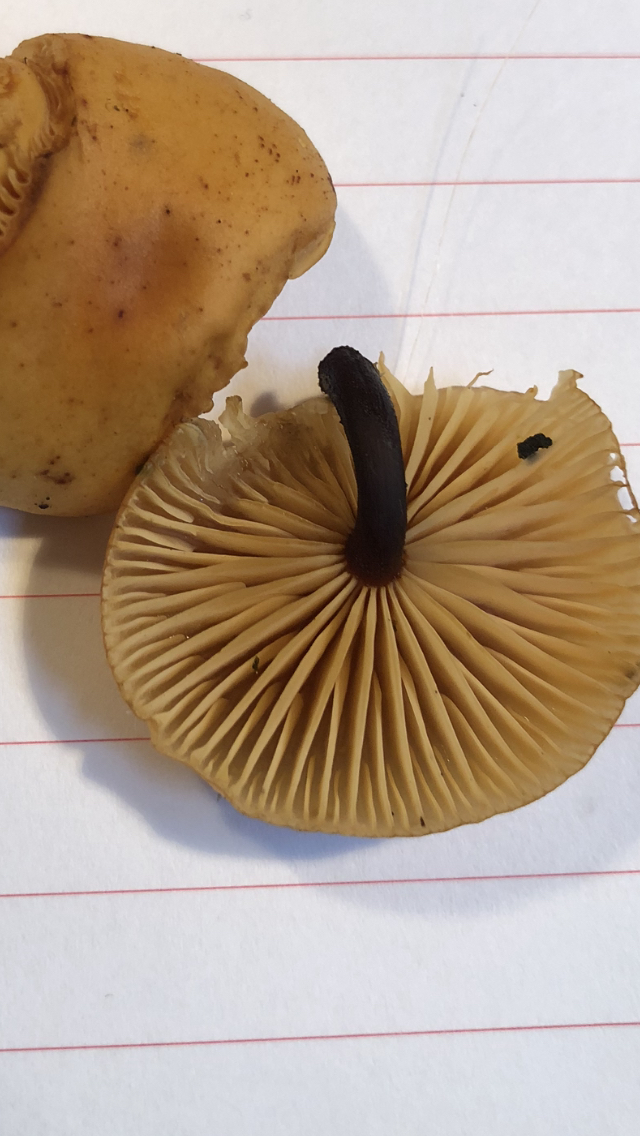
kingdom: Fungi
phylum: Basidiomycota
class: Agaricomycetes
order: Agaricales
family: Physalacriaceae
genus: Flammulina
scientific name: Flammulina
